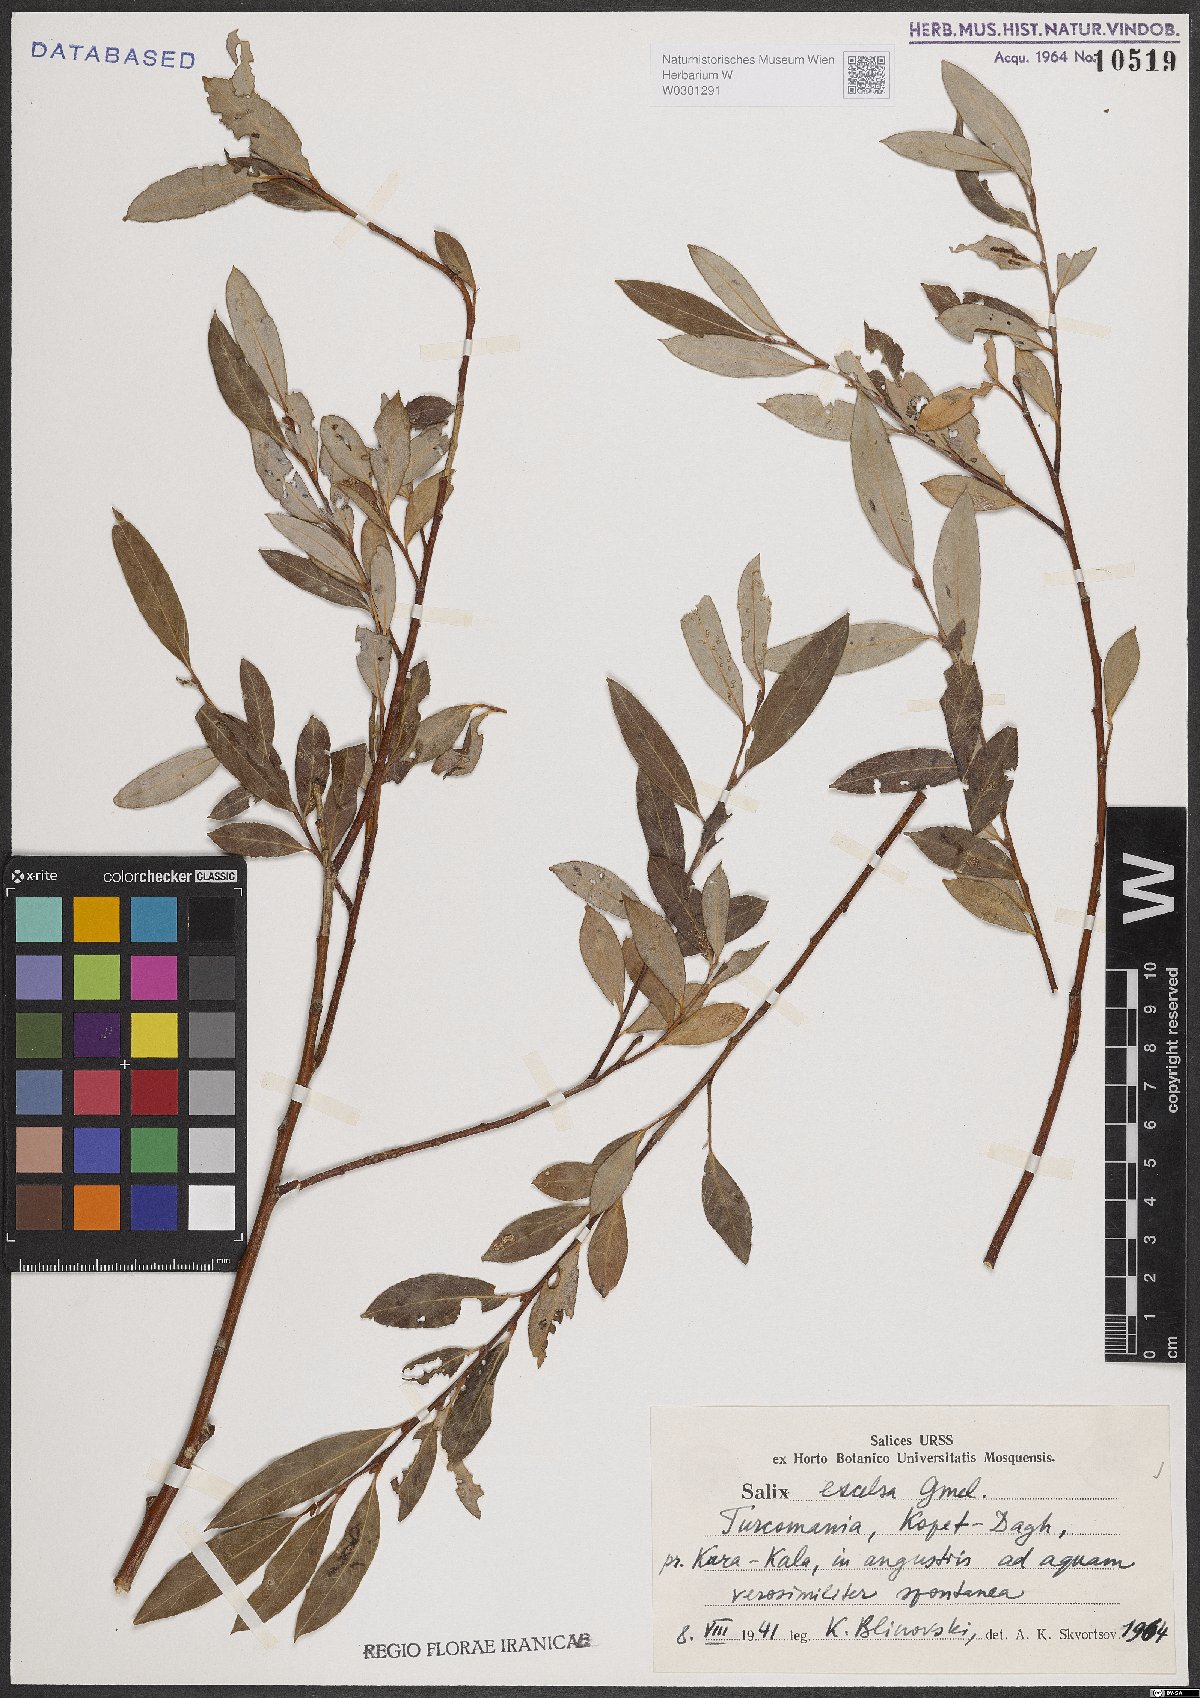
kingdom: Plantae
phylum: Tracheophyta
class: Magnoliopsida
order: Malpighiales
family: Salicaceae
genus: Salix
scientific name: Salix excelsa
